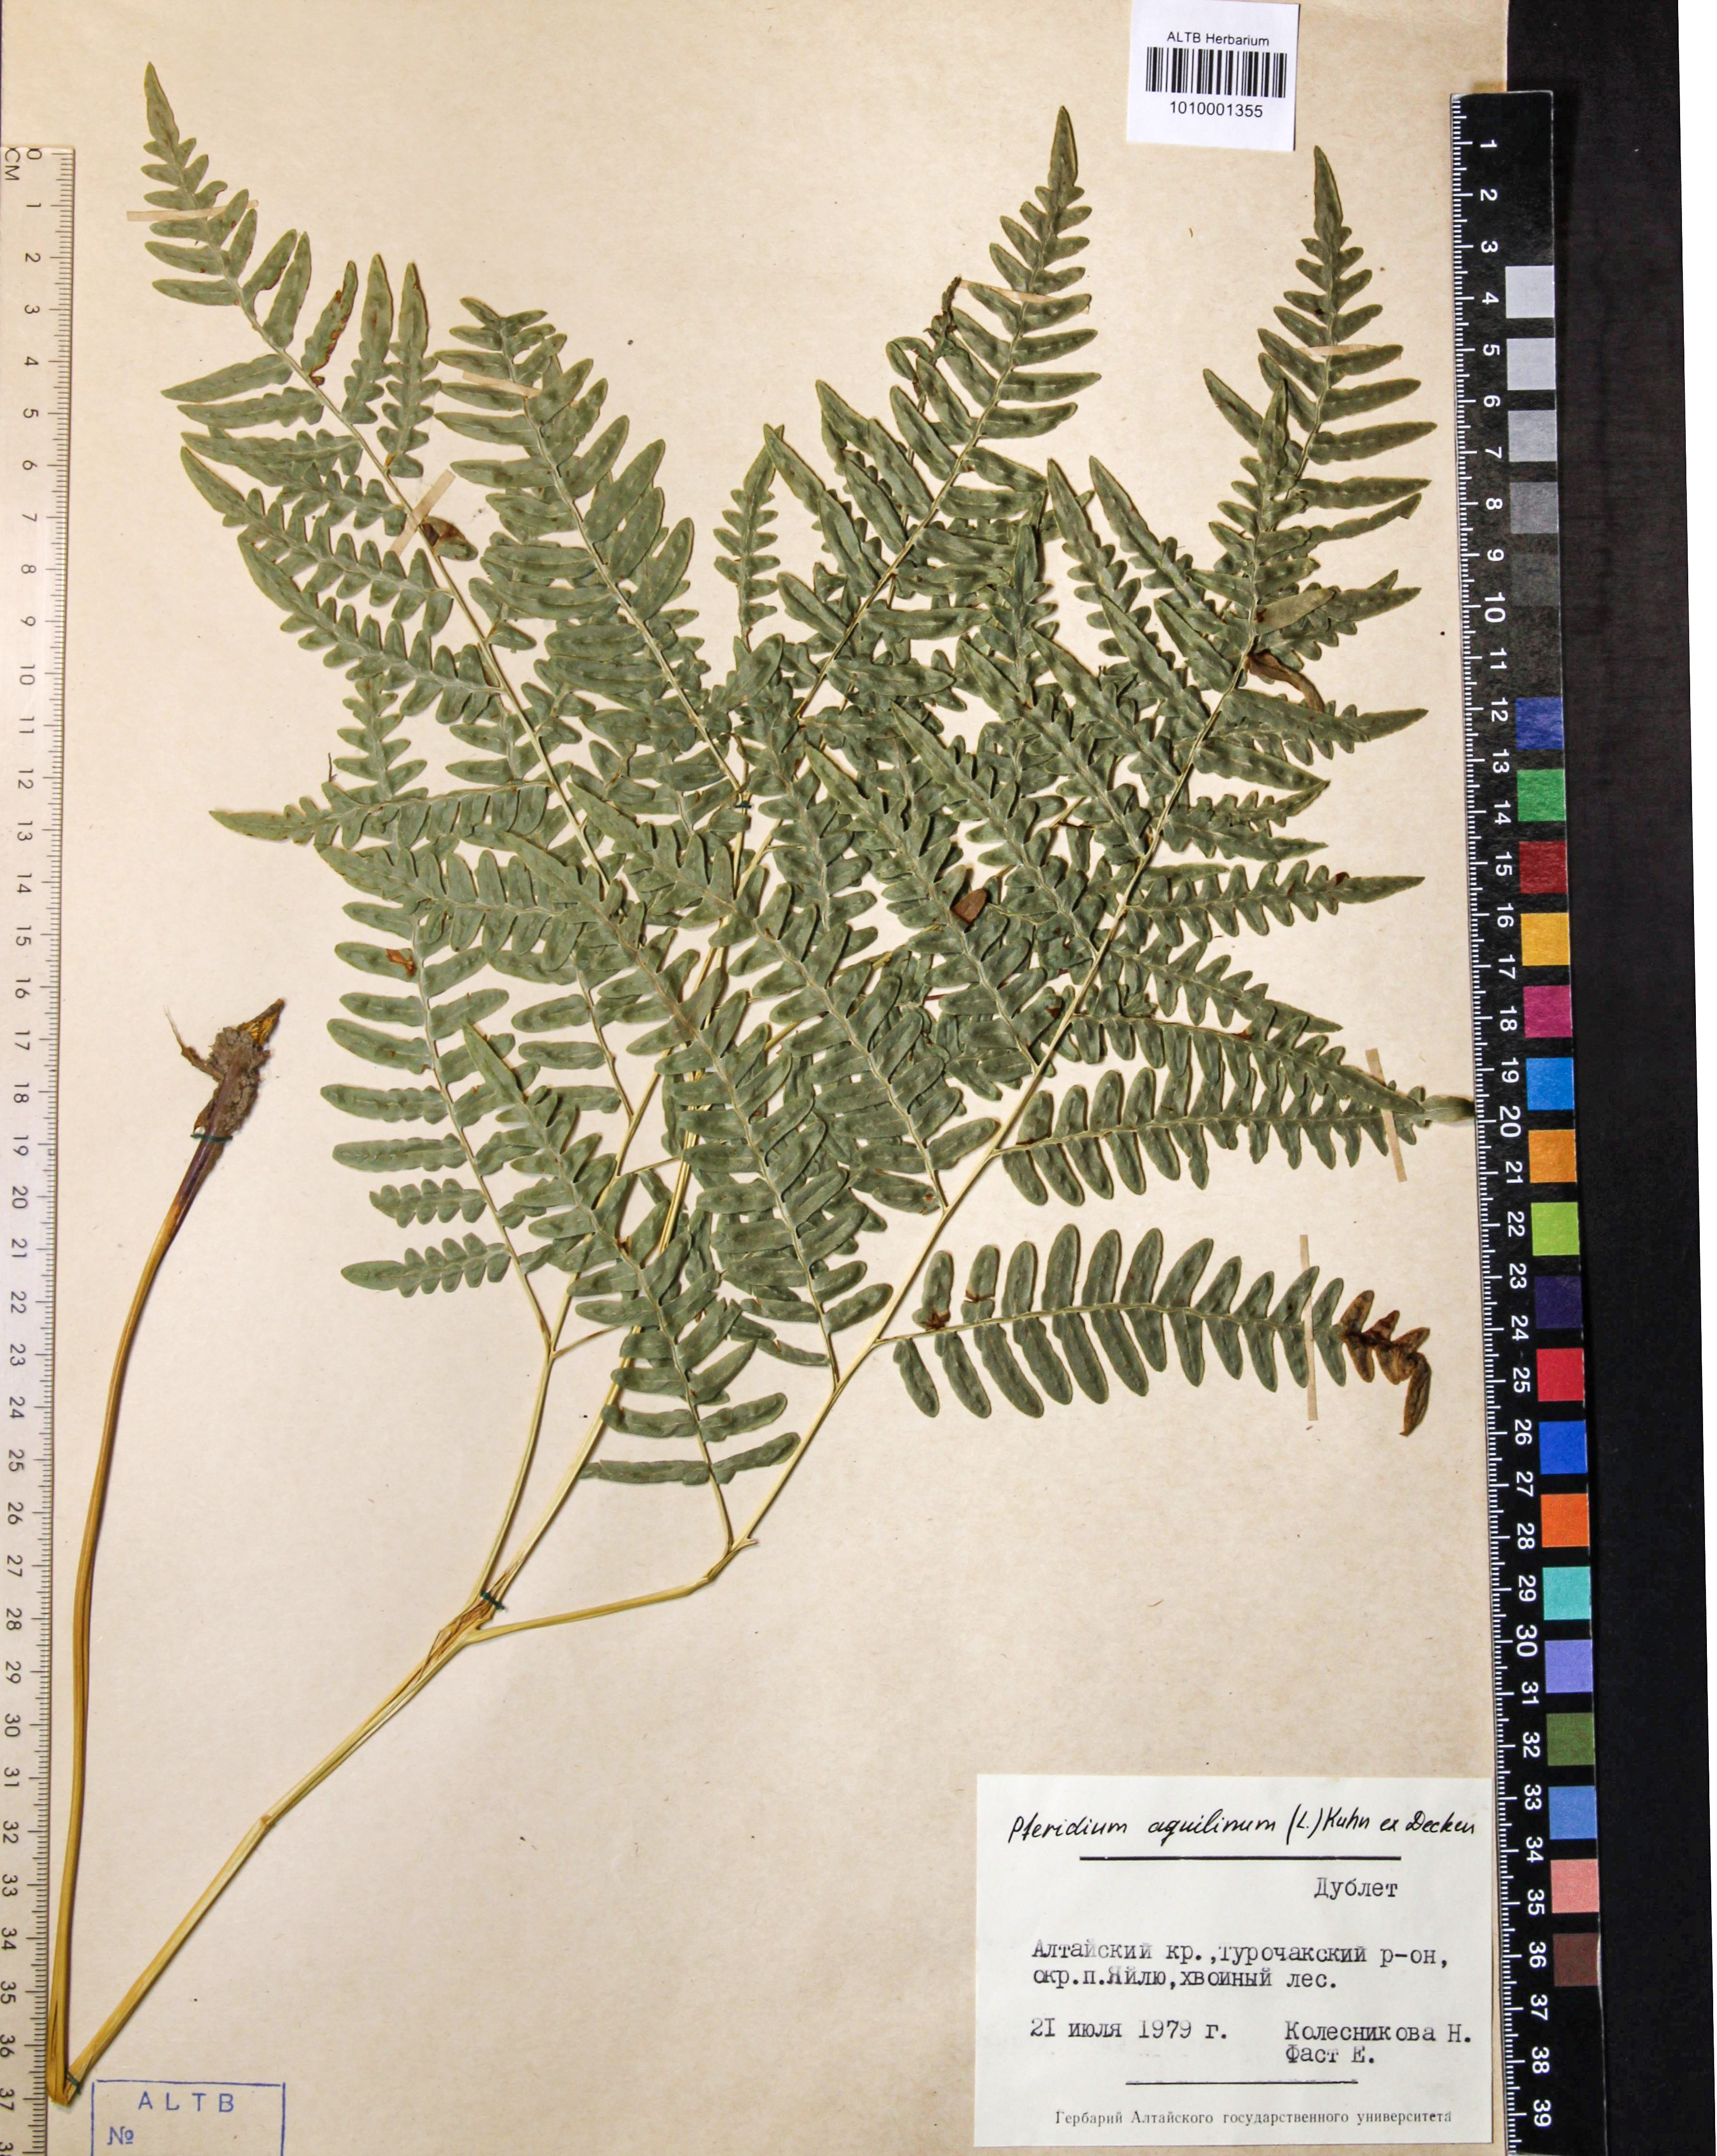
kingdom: Plantae
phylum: Tracheophyta
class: Polypodiopsida
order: Polypodiales
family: Dennstaedtiaceae
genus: Pteridium
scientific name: Pteridium aquilinum
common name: Bracken
